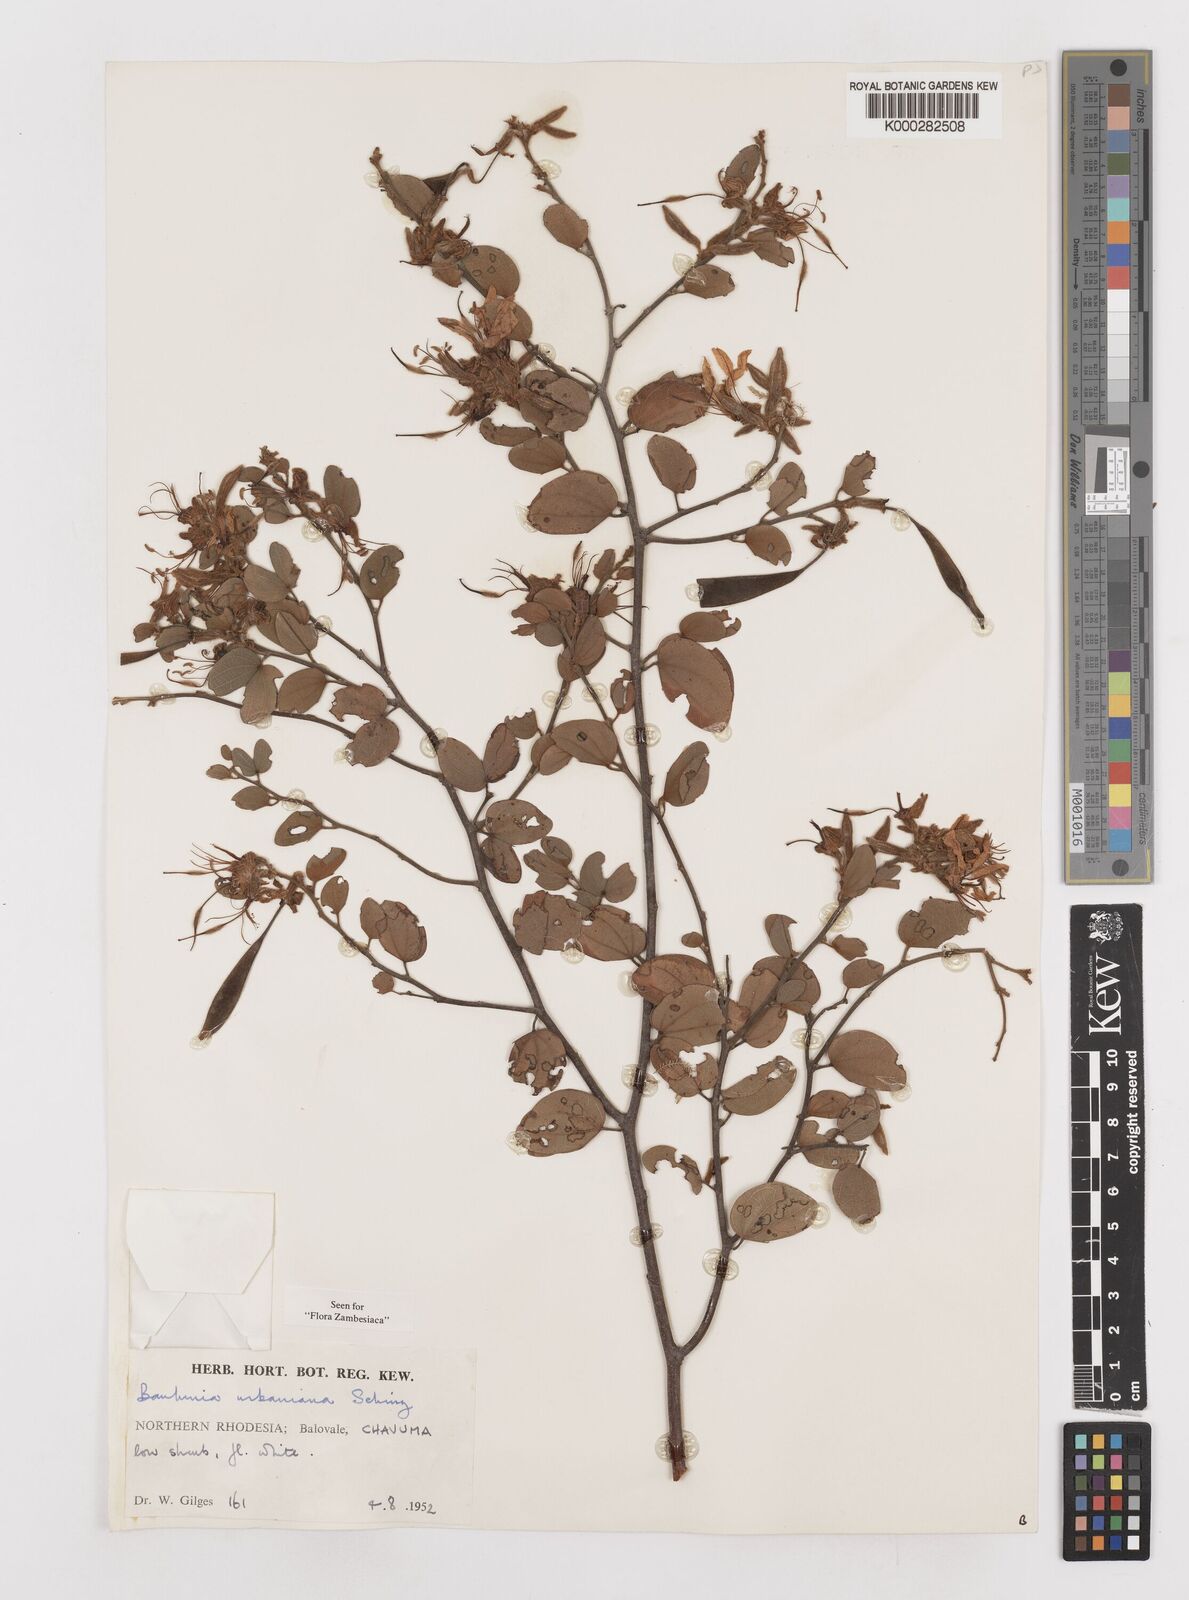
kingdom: Plantae
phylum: Tracheophyta
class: Magnoliopsida
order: Fabales
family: Fabaceae
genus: Bauhinia
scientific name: Bauhinia urbaniana
